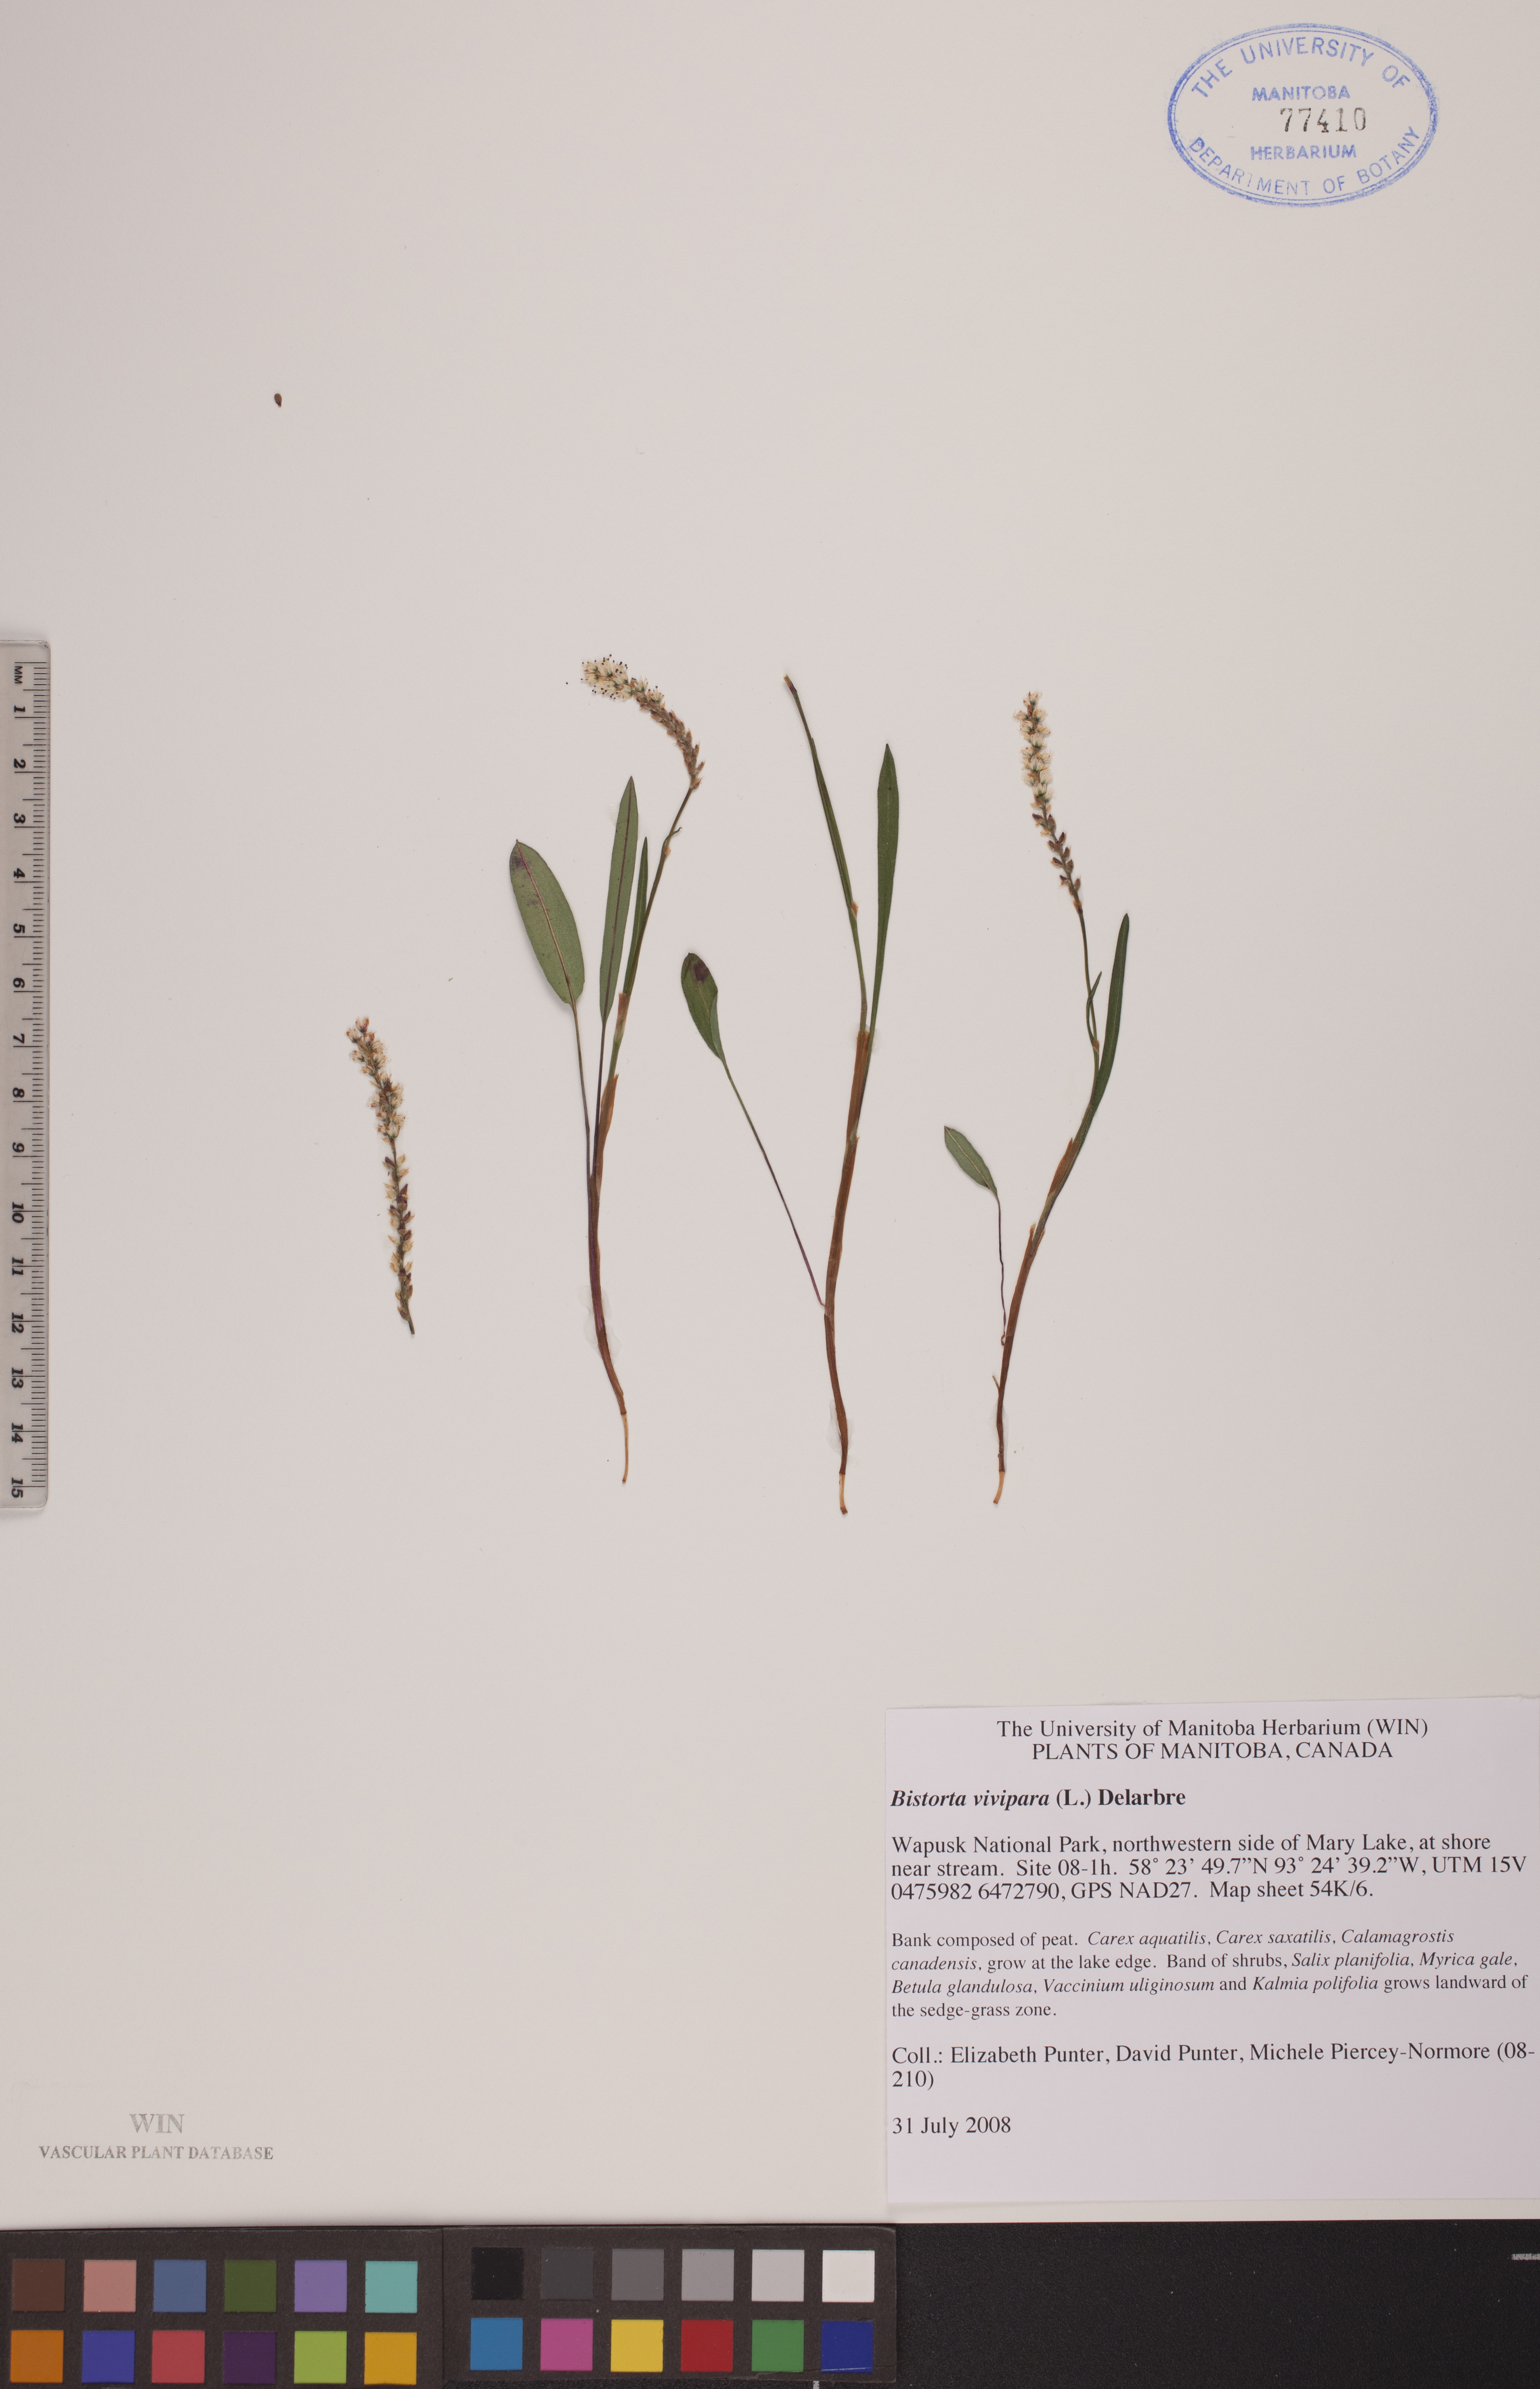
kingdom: Plantae
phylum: Tracheophyta
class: Magnoliopsida
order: Caryophyllales
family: Polygonaceae
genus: Bistorta
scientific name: Bistorta vivipara
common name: Alpine bistort
